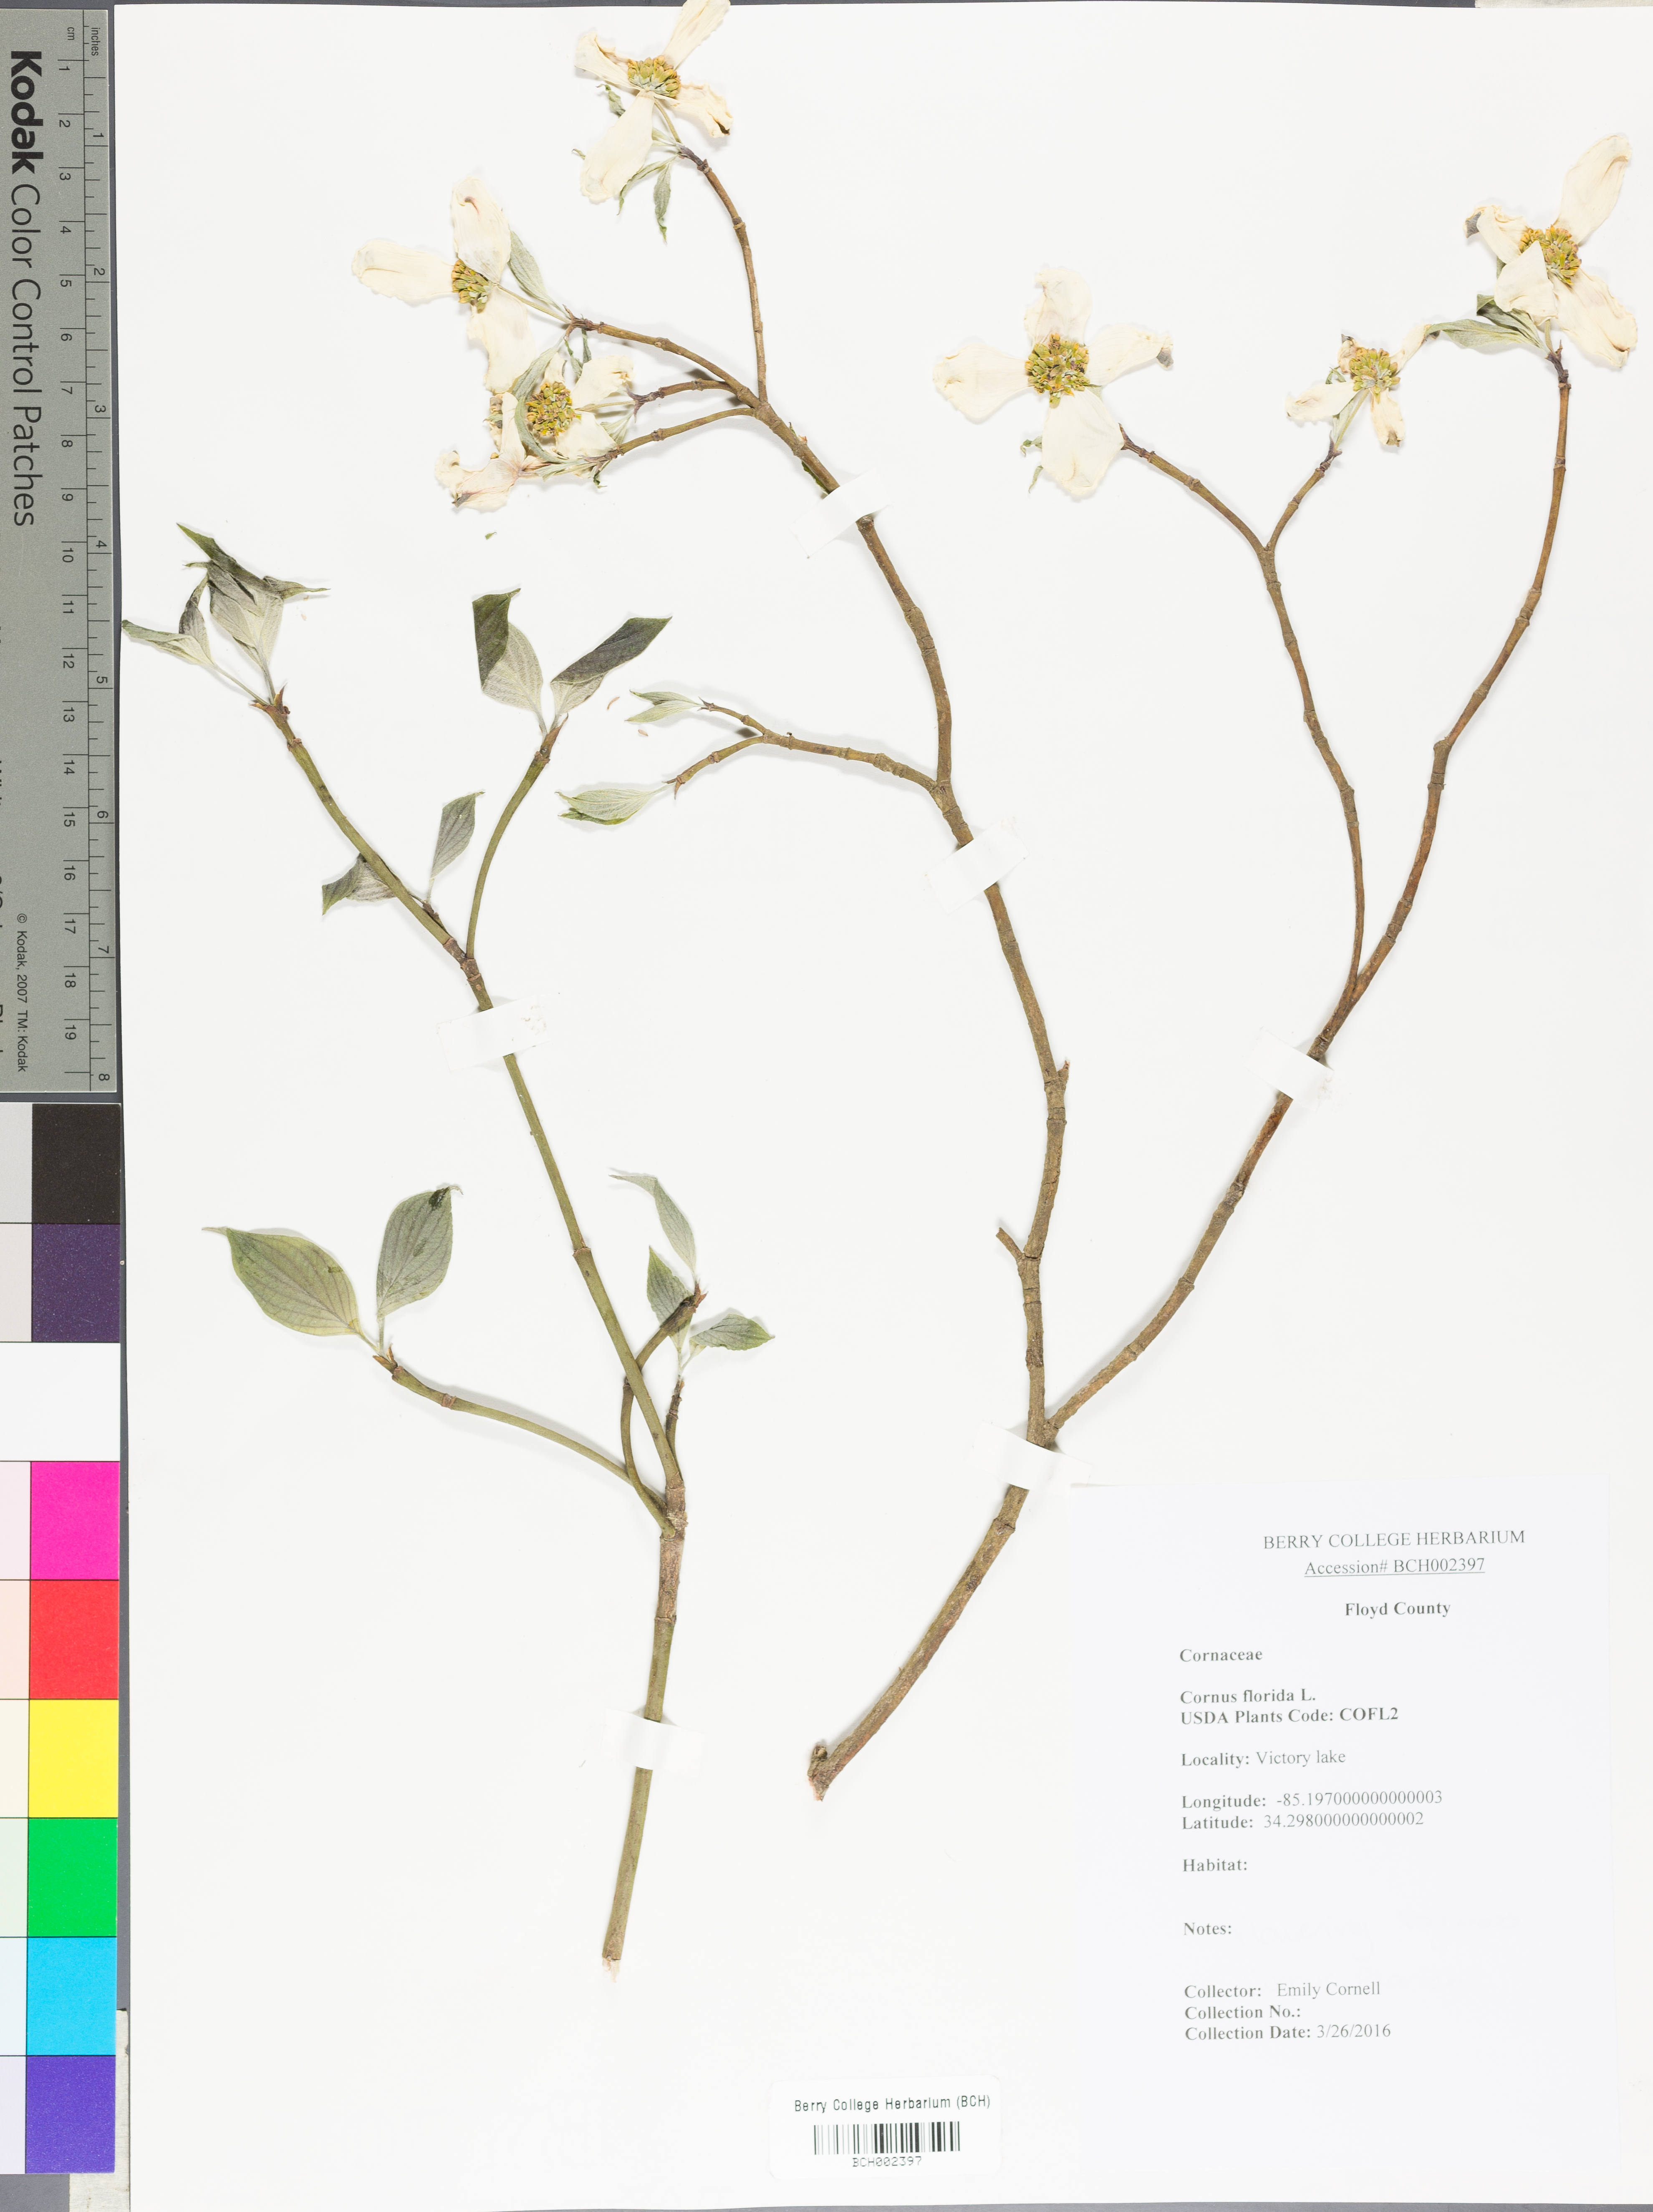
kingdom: Plantae
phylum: Tracheophyta
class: Magnoliopsida
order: Cornales
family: Cornaceae
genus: Cornus
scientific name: Cornus florida
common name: Flowering dogwood
